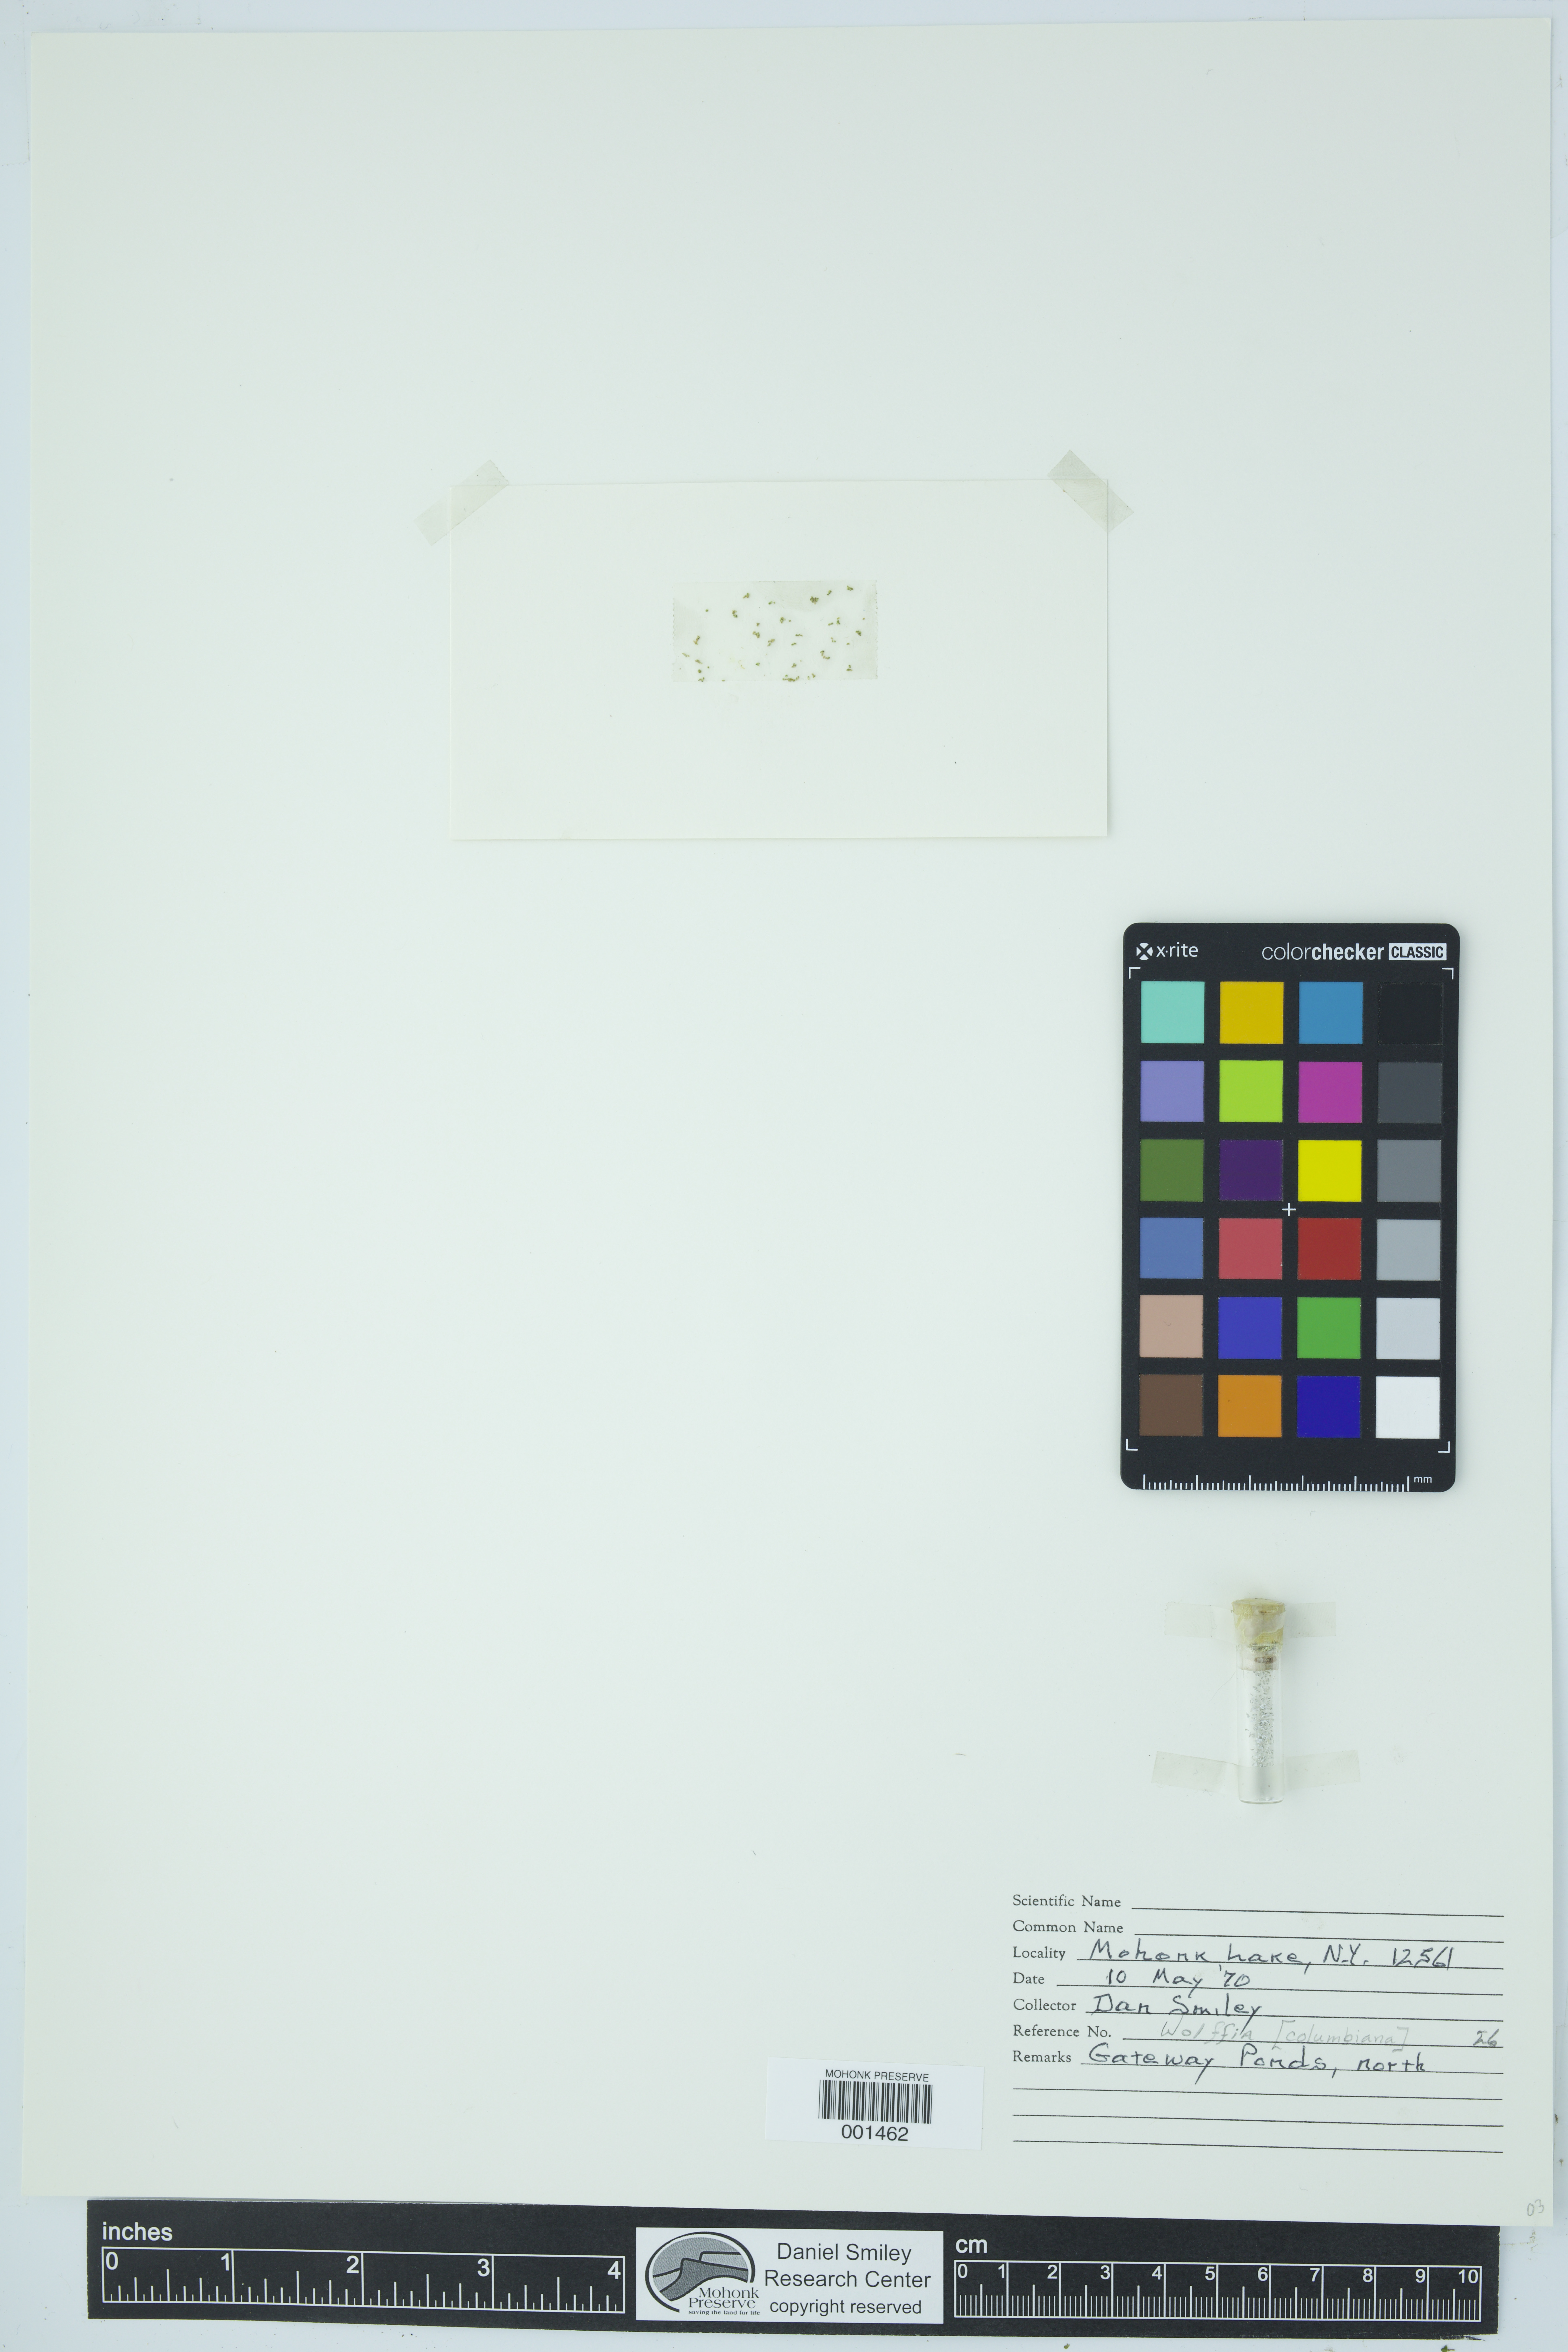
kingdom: Plantae
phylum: Tracheophyta
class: Liliopsida
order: Alismatales
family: Araceae
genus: Wolffia
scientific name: Wolffia columbiana
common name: Columbia watermeal
